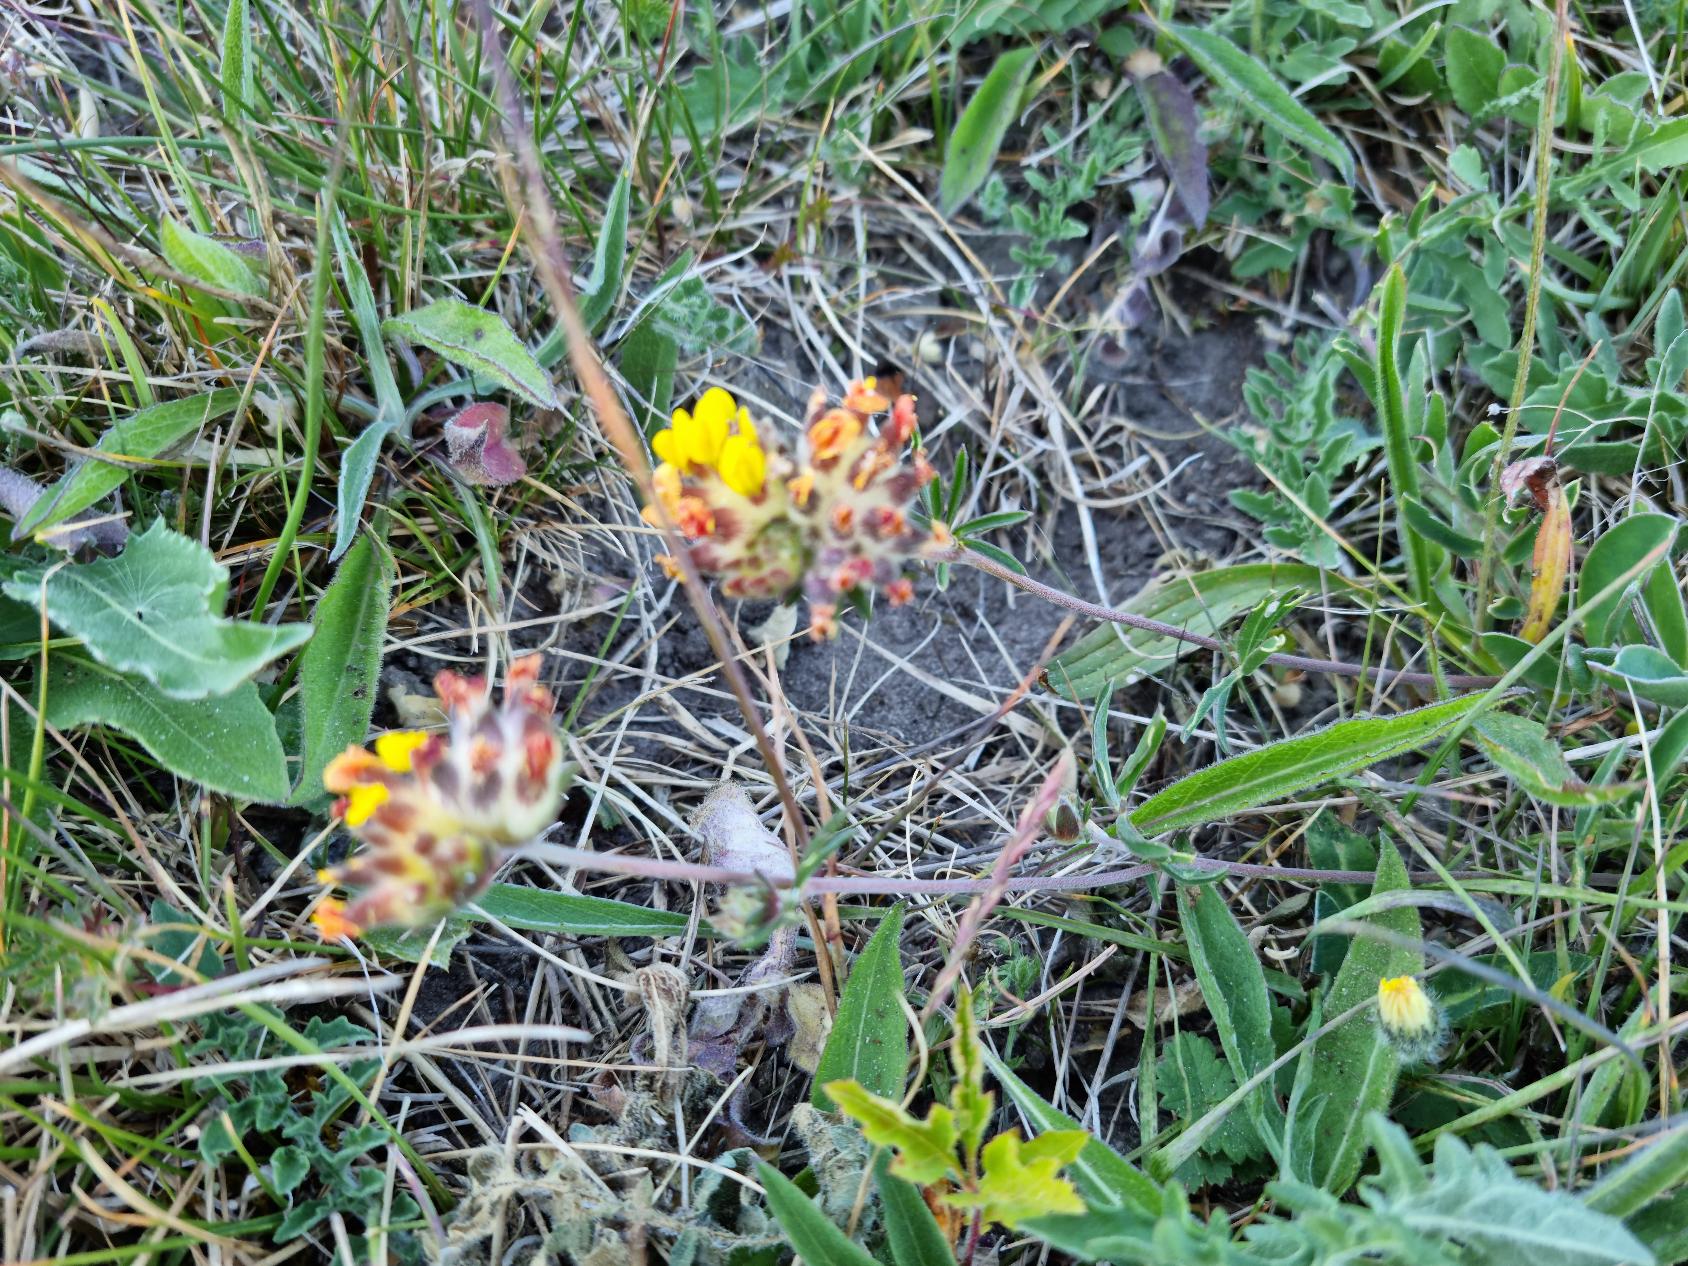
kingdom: Plantae
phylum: Tracheophyta
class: Magnoliopsida
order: Fabales
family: Fabaceae
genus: Anthyllis
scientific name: Anthyllis vulneraria
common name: Rundbælg
